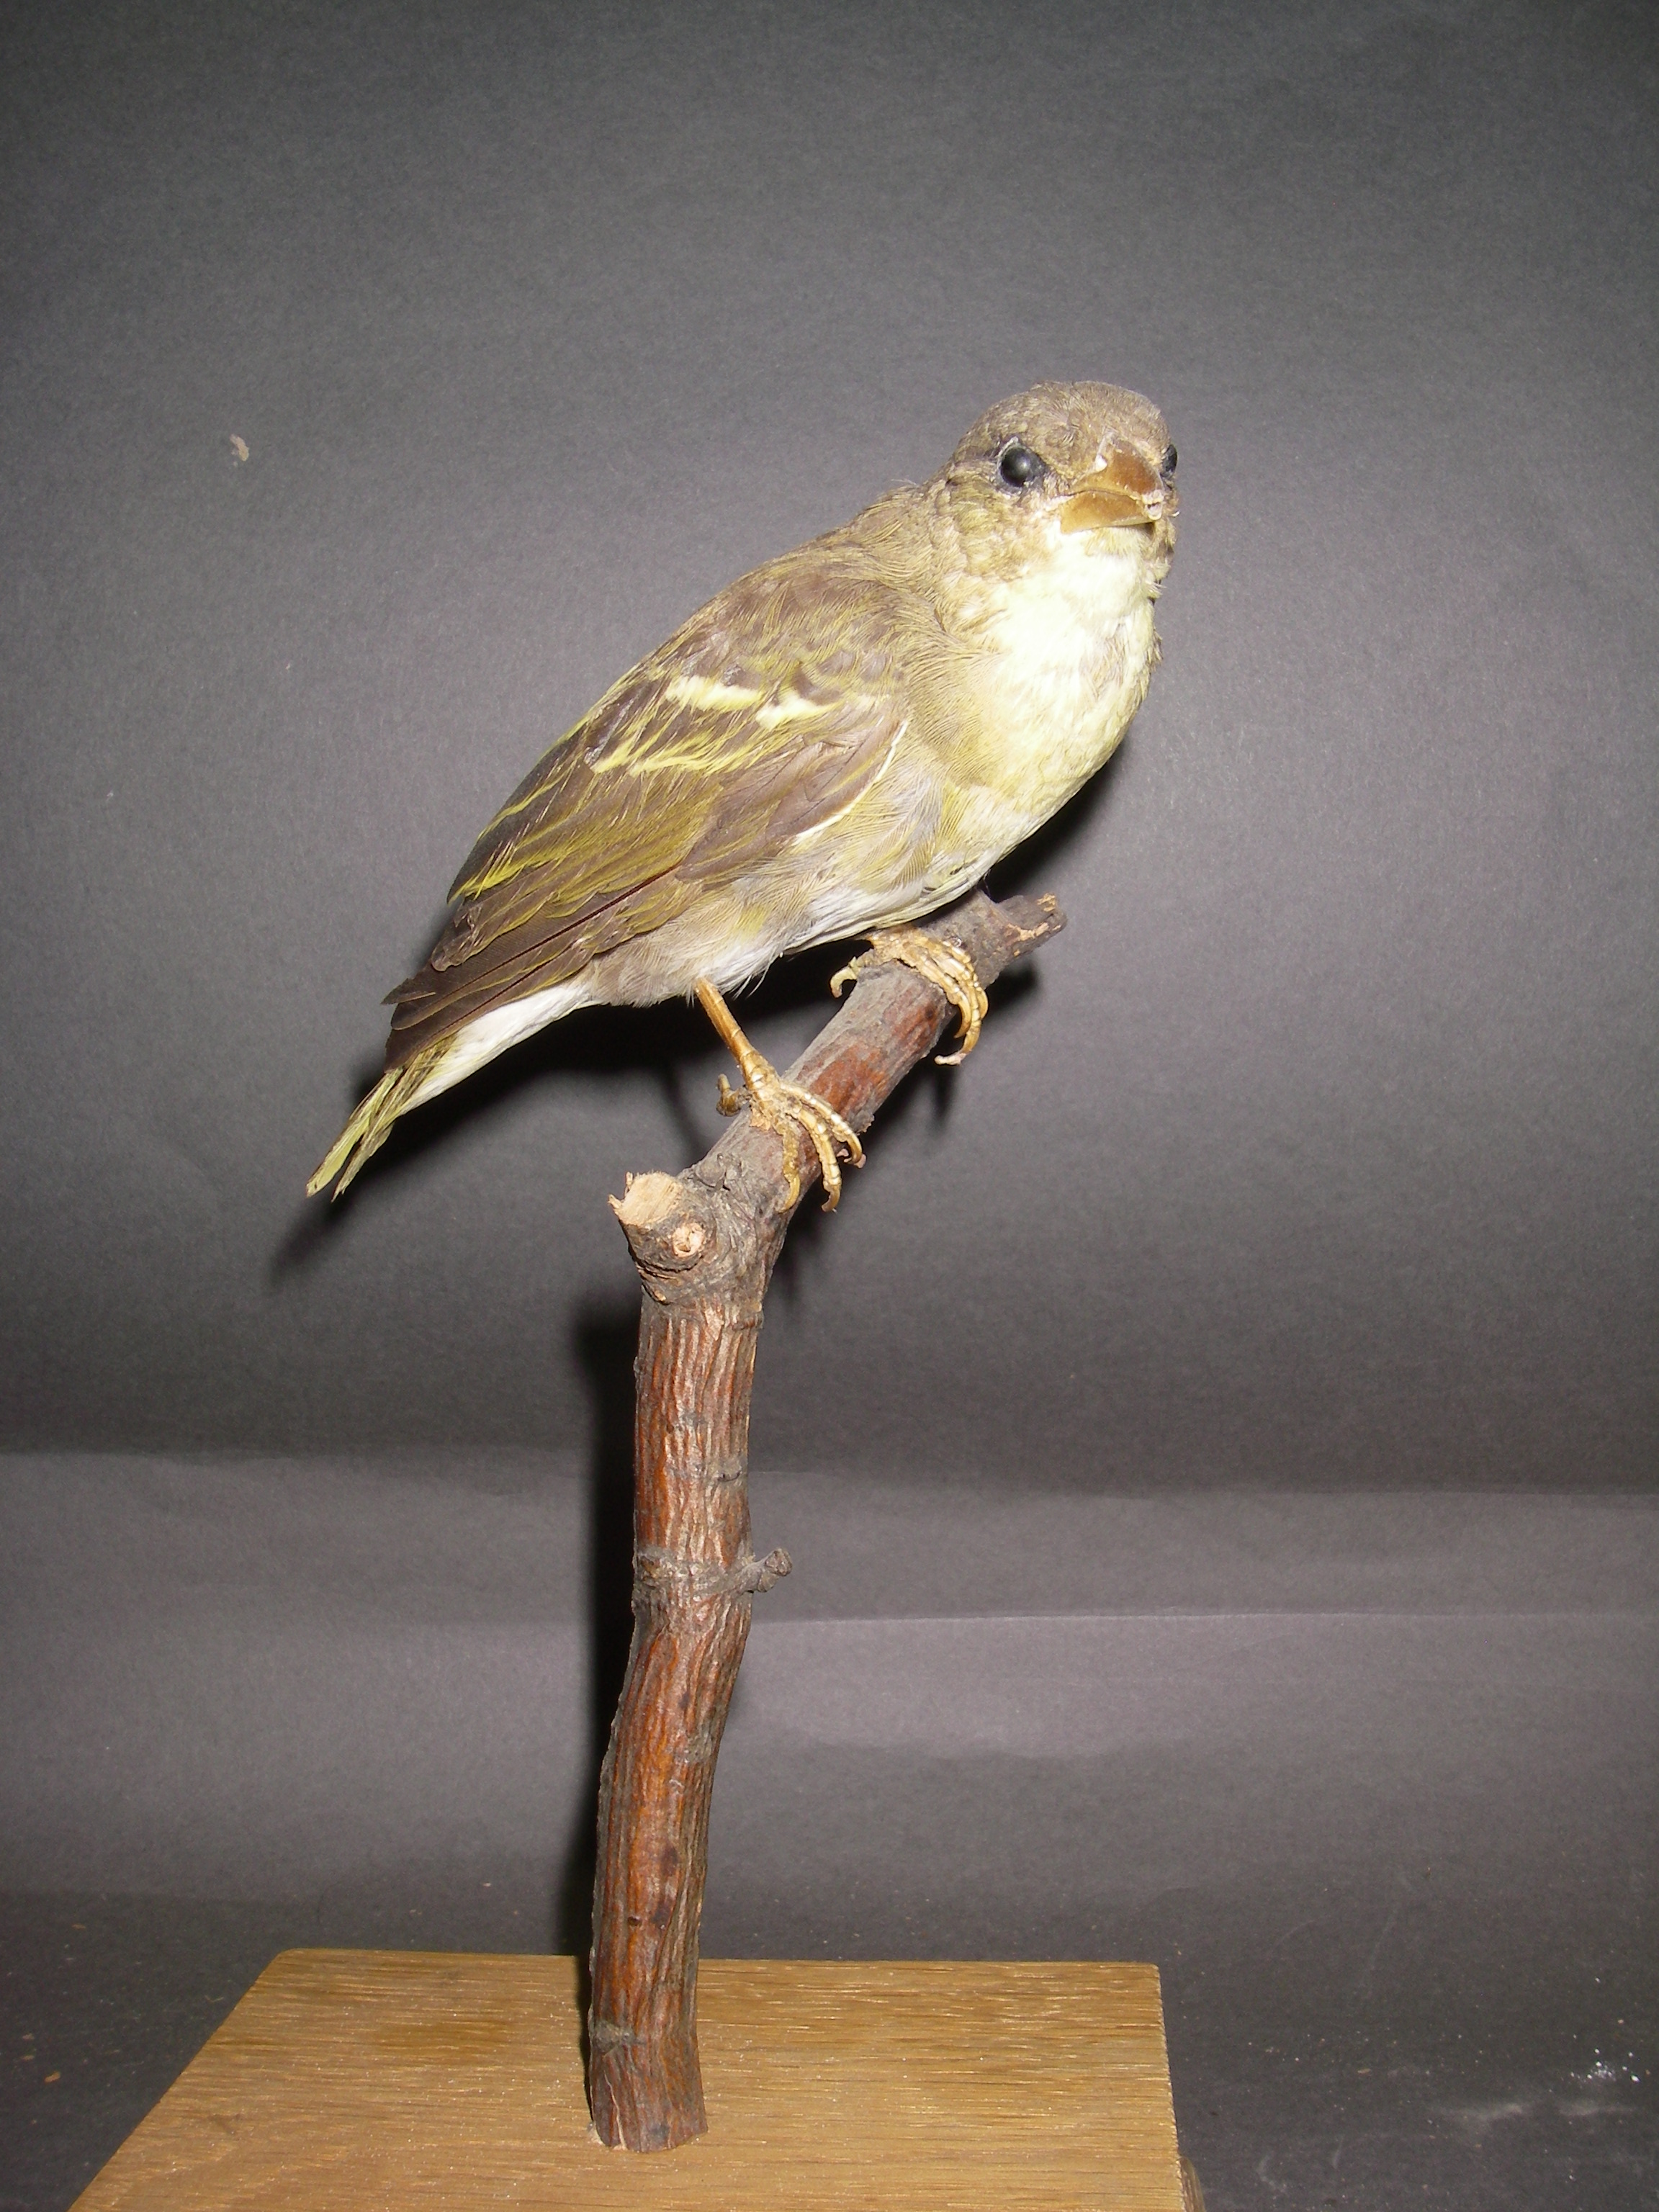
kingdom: Animalia
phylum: Chordata
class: Aves
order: Passeriformes
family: Ploceidae
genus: Ploceus
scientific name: Ploceus galbula
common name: Rüppell's weaver
